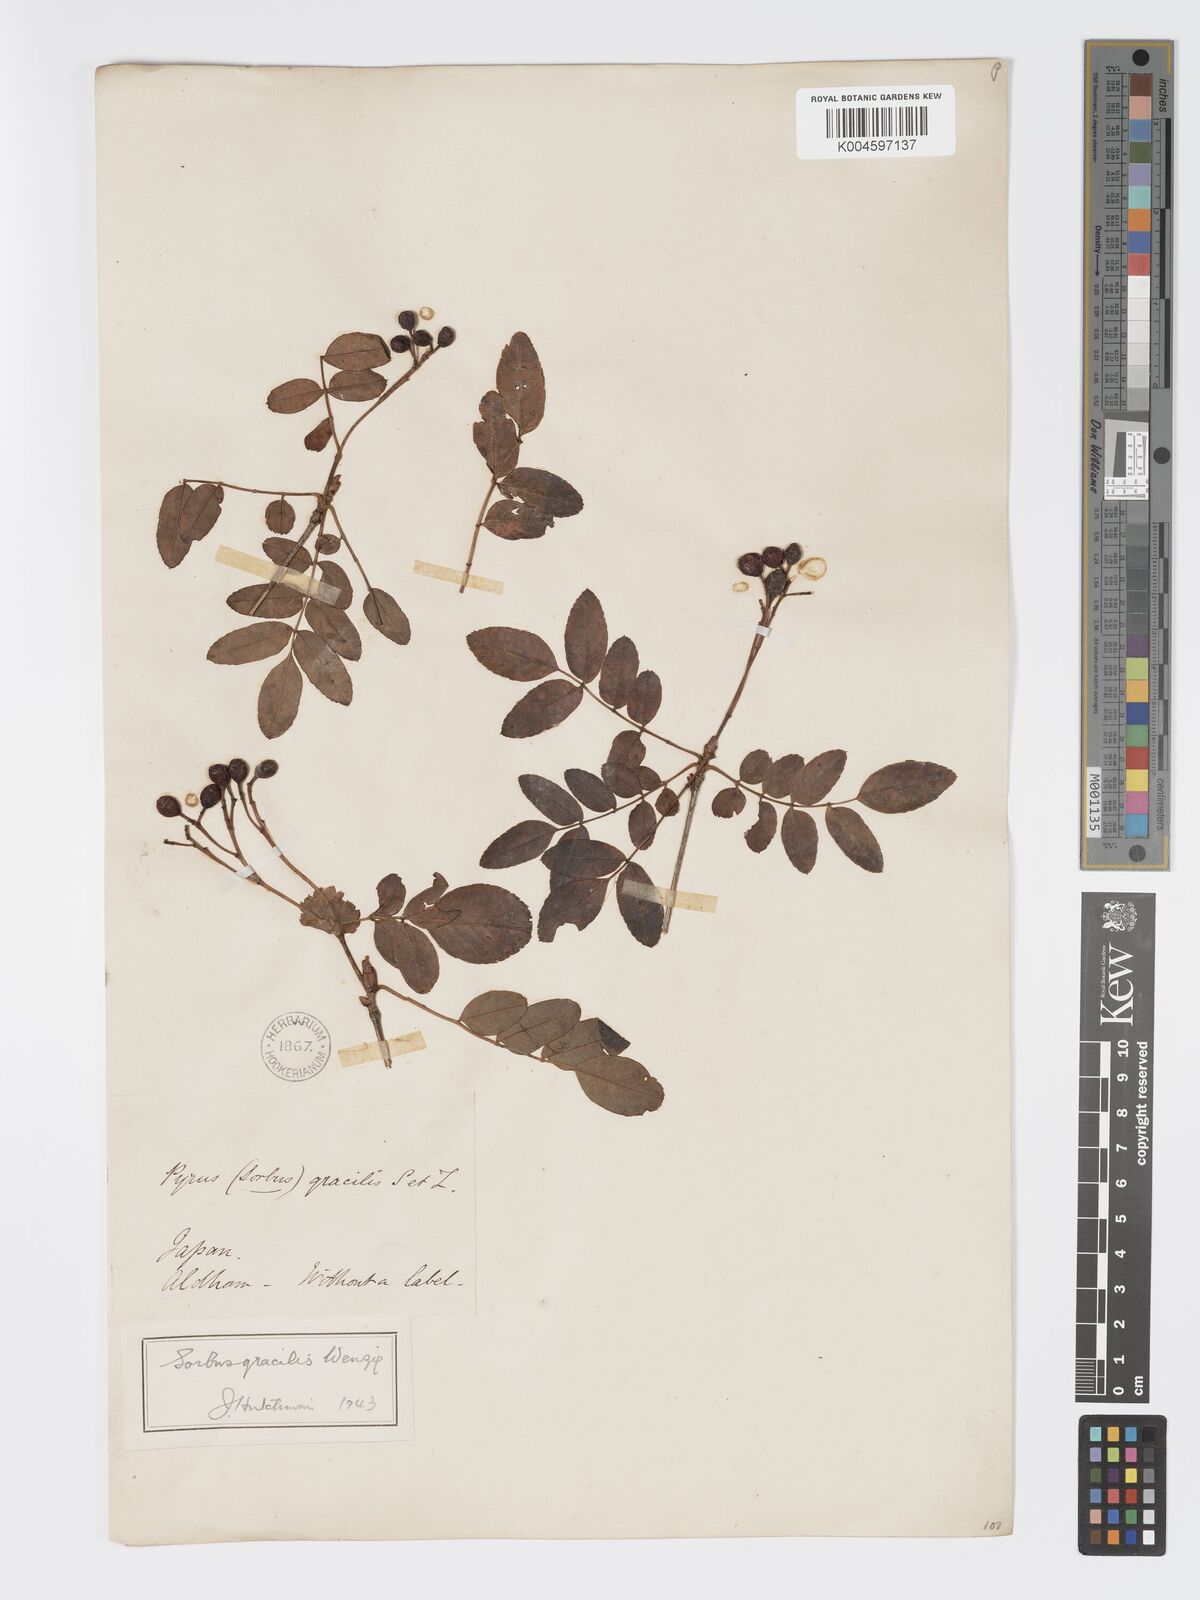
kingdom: Plantae
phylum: Tracheophyta
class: Magnoliopsida
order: Rosales
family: Rosaceae
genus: Sorbus
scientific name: Sorbus gracilis
